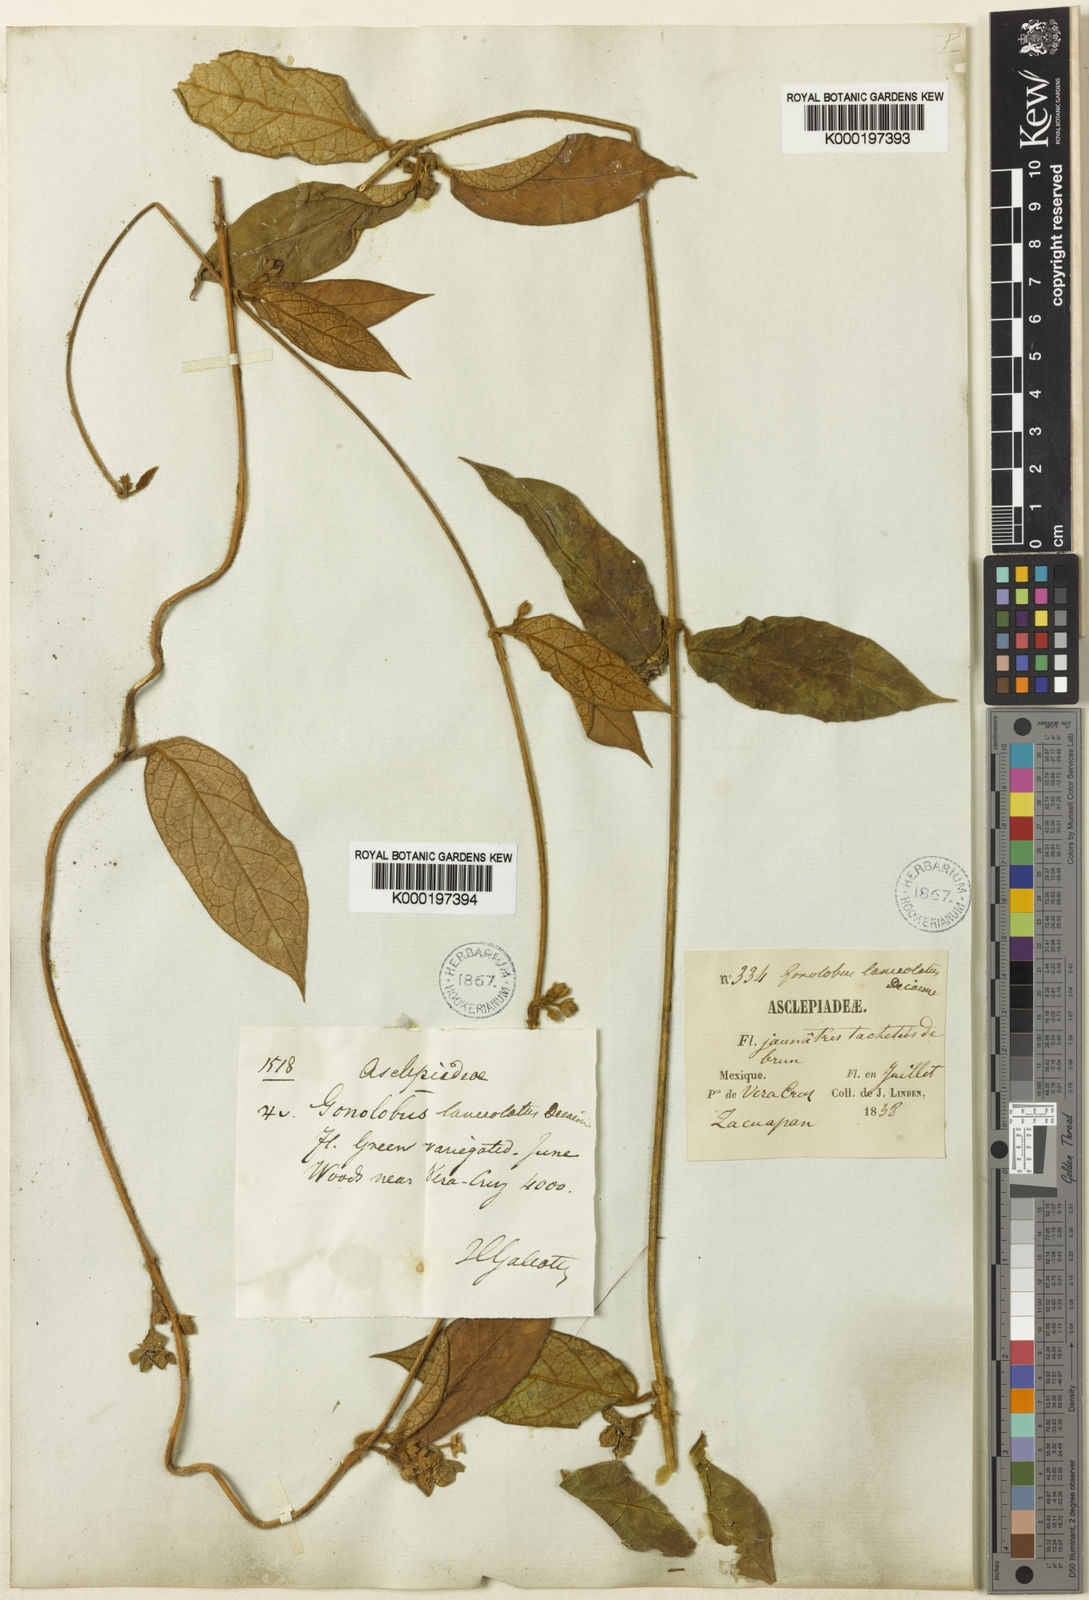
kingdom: Plantae
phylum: Tracheophyta
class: Magnoliopsida
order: Gentianales
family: Apocynaceae
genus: Matelea
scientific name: Matelea lanceolata
